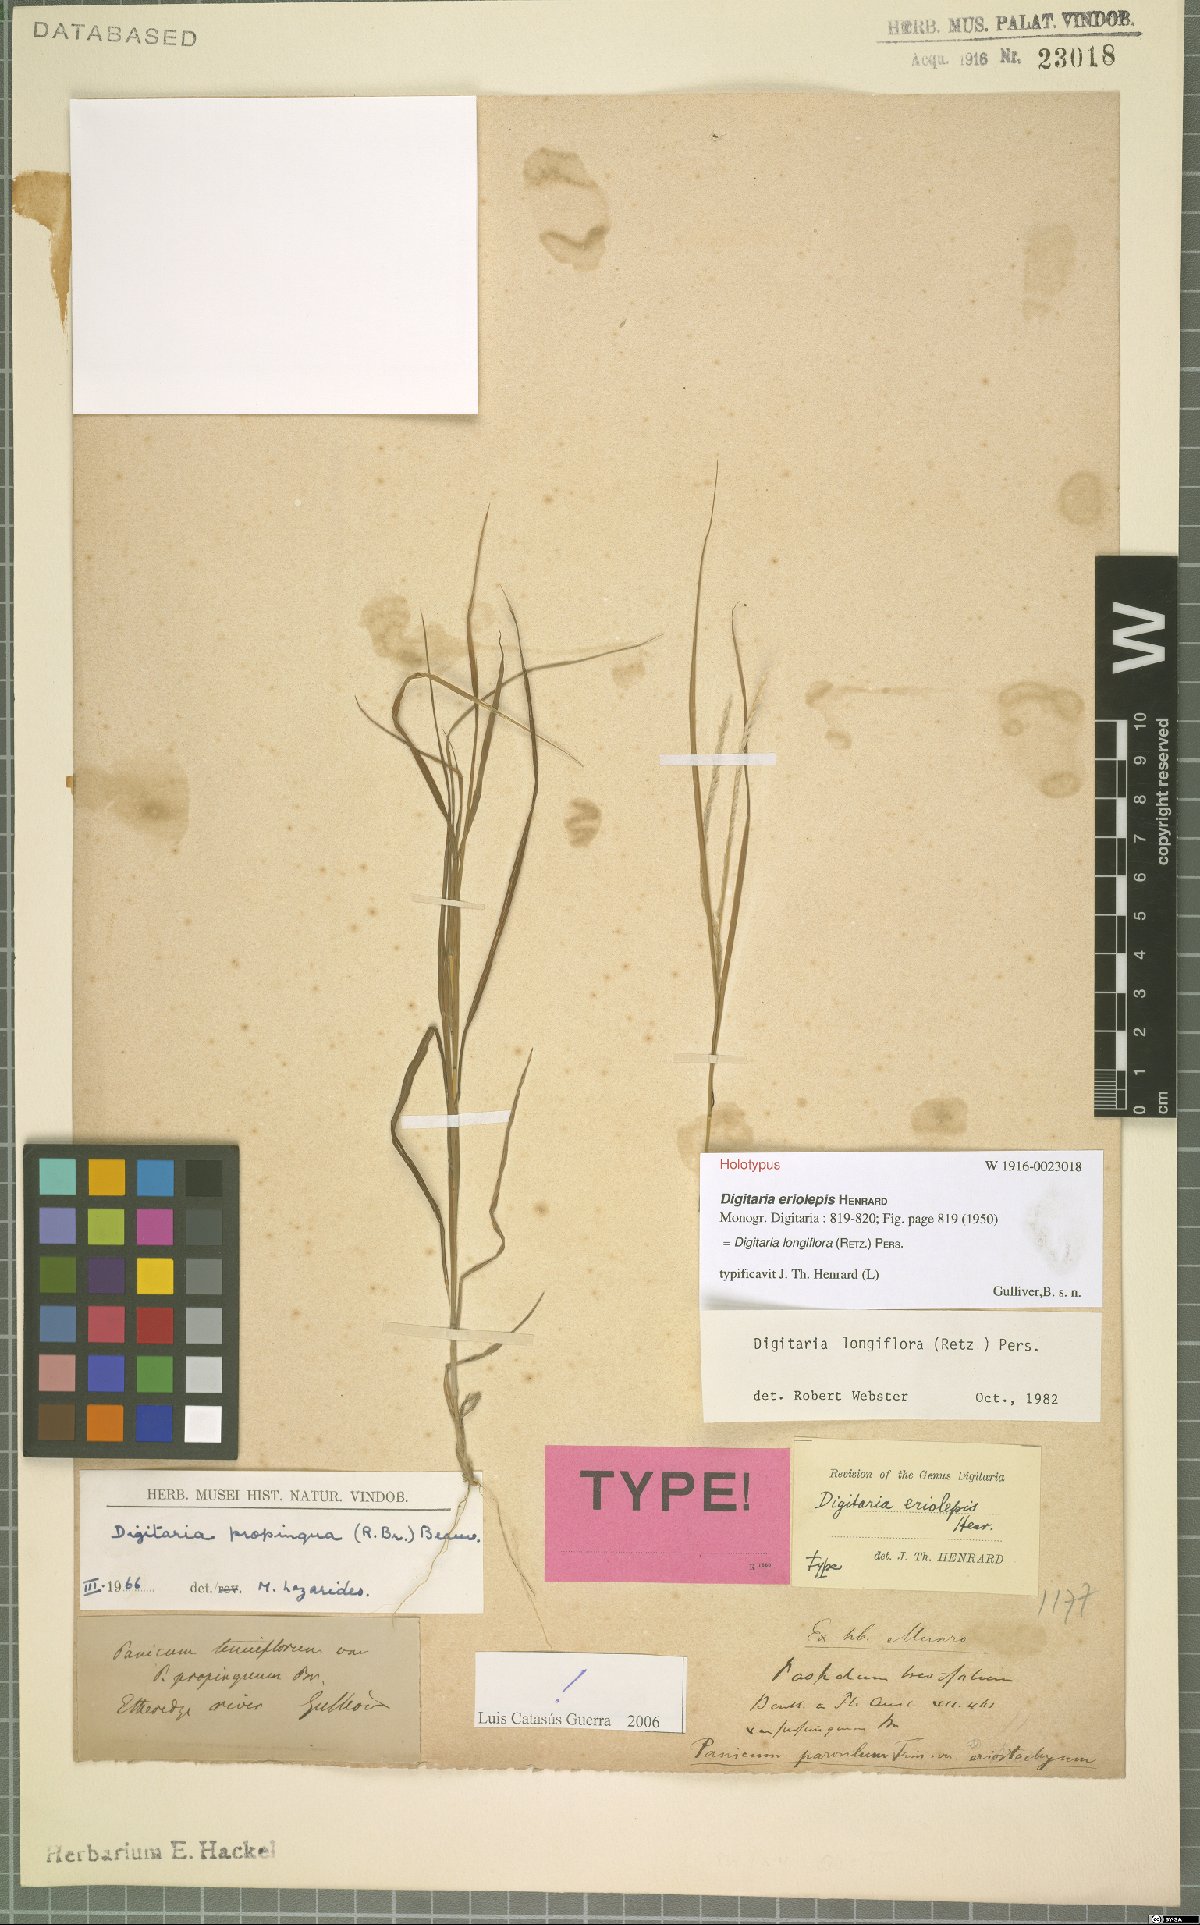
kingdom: Plantae
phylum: Tracheophyta
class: Liliopsida
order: Poales
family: Poaceae
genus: Digitaria
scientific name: Digitaria longiflora
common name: Wire crabgrass
